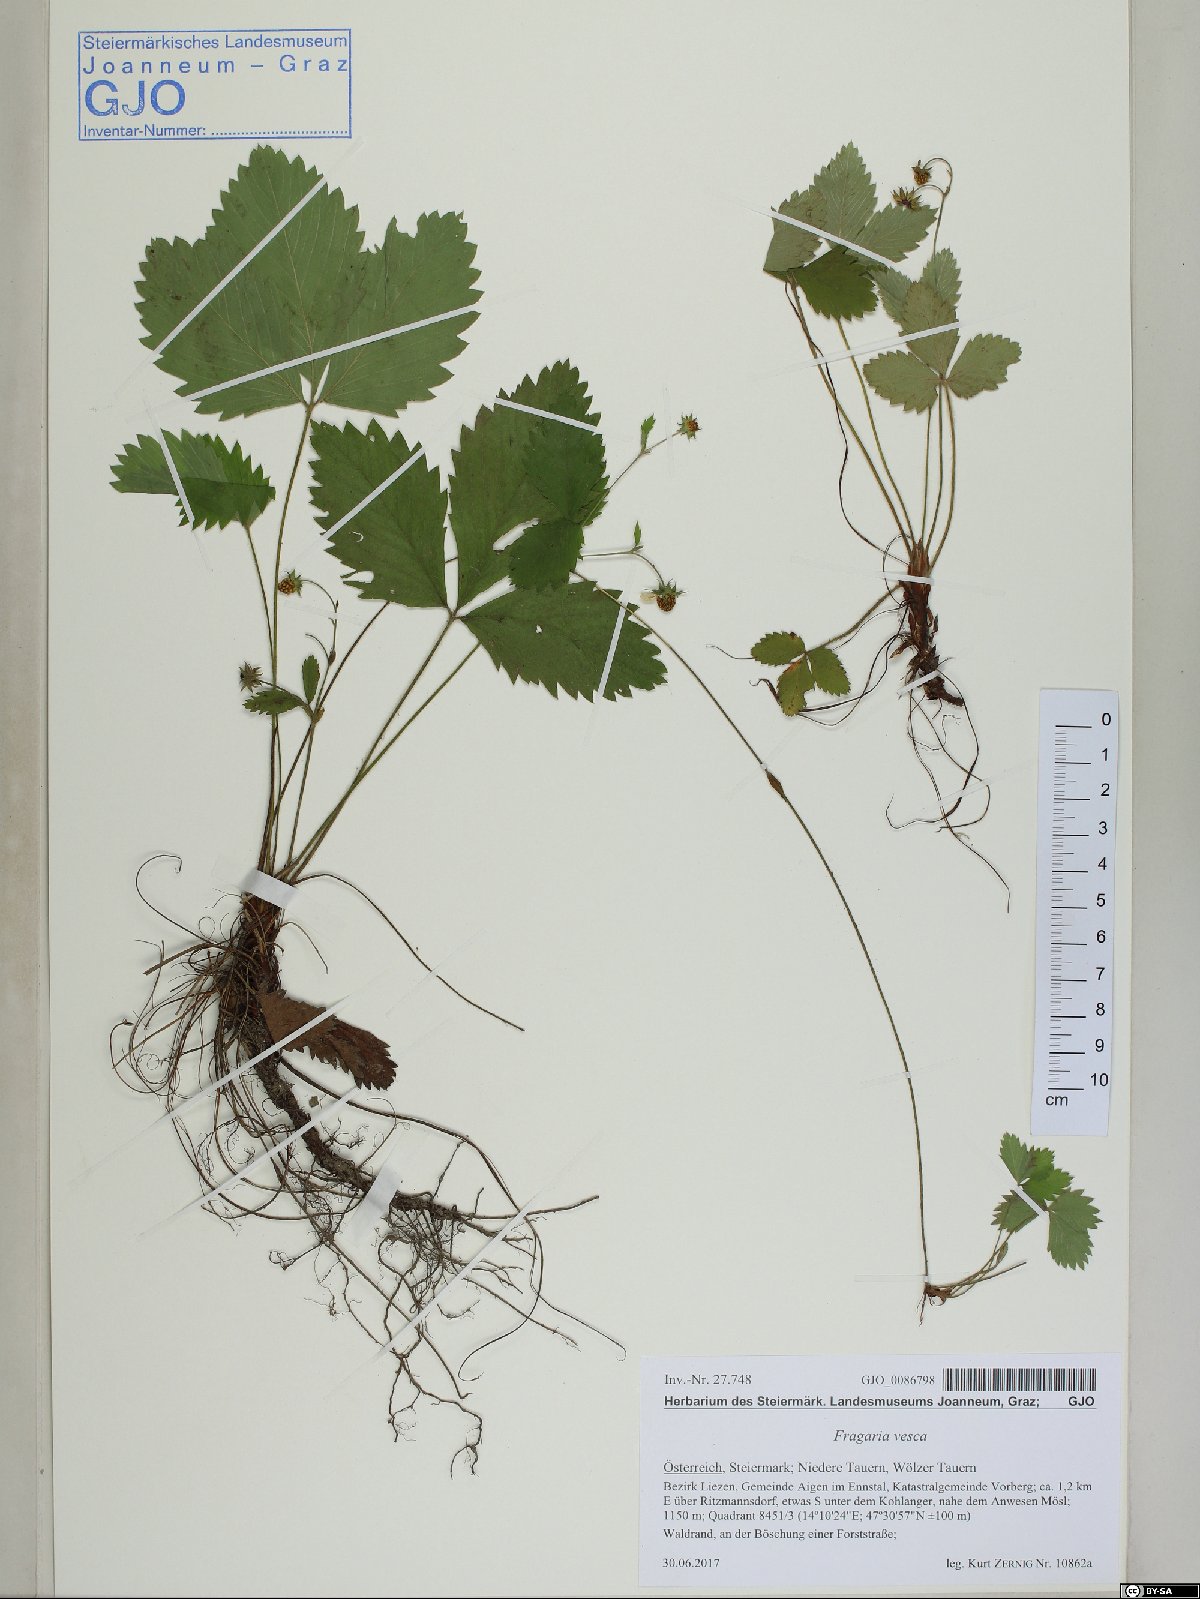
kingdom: Plantae
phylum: Tracheophyta
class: Magnoliopsida
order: Rosales
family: Rosaceae
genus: Fragaria
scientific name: Fragaria vesca
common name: Wild strawberry
